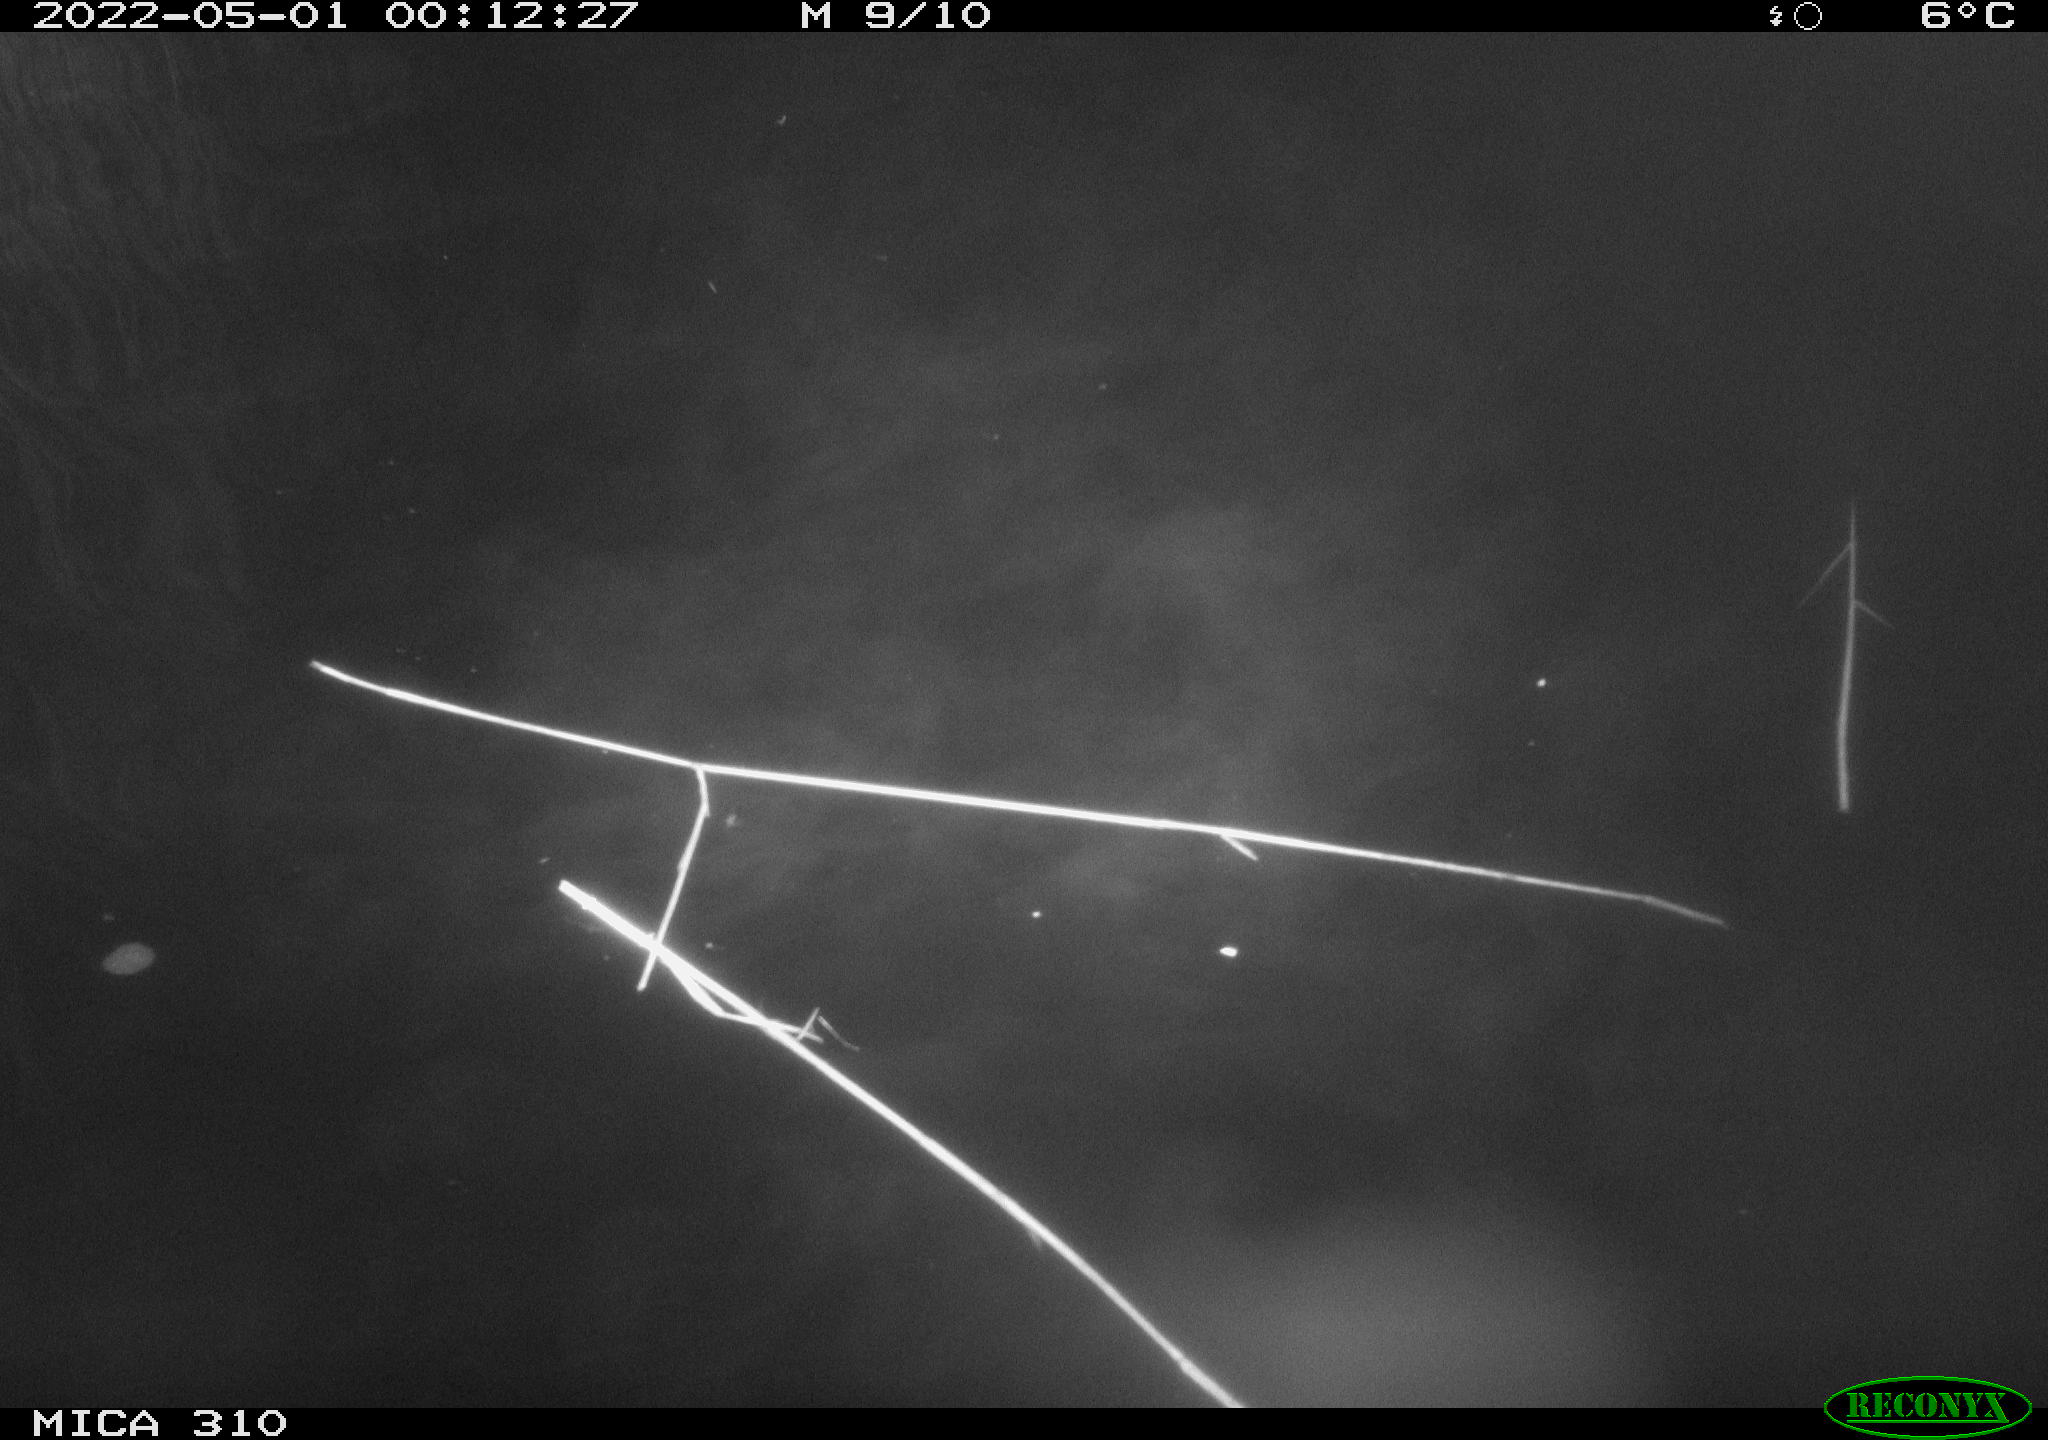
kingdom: Animalia
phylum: Chordata
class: Mammalia
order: Rodentia
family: Cricetidae
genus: Ondatra
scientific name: Ondatra zibethicus
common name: Muskrat
